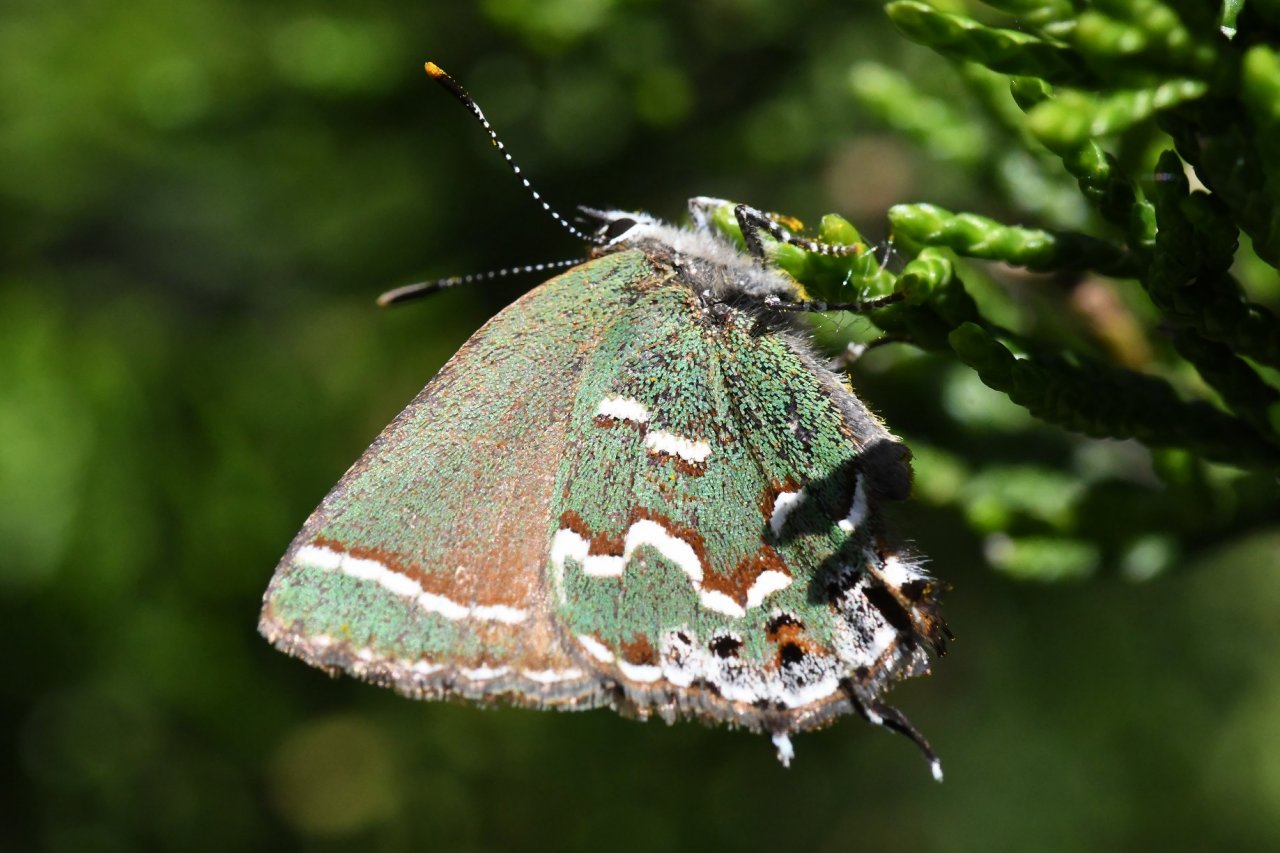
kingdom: Animalia
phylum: Arthropoda
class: Insecta
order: Lepidoptera
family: Lycaenidae
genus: Mitoura
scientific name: Mitoura gryneus
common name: Juniper Hairstreak
